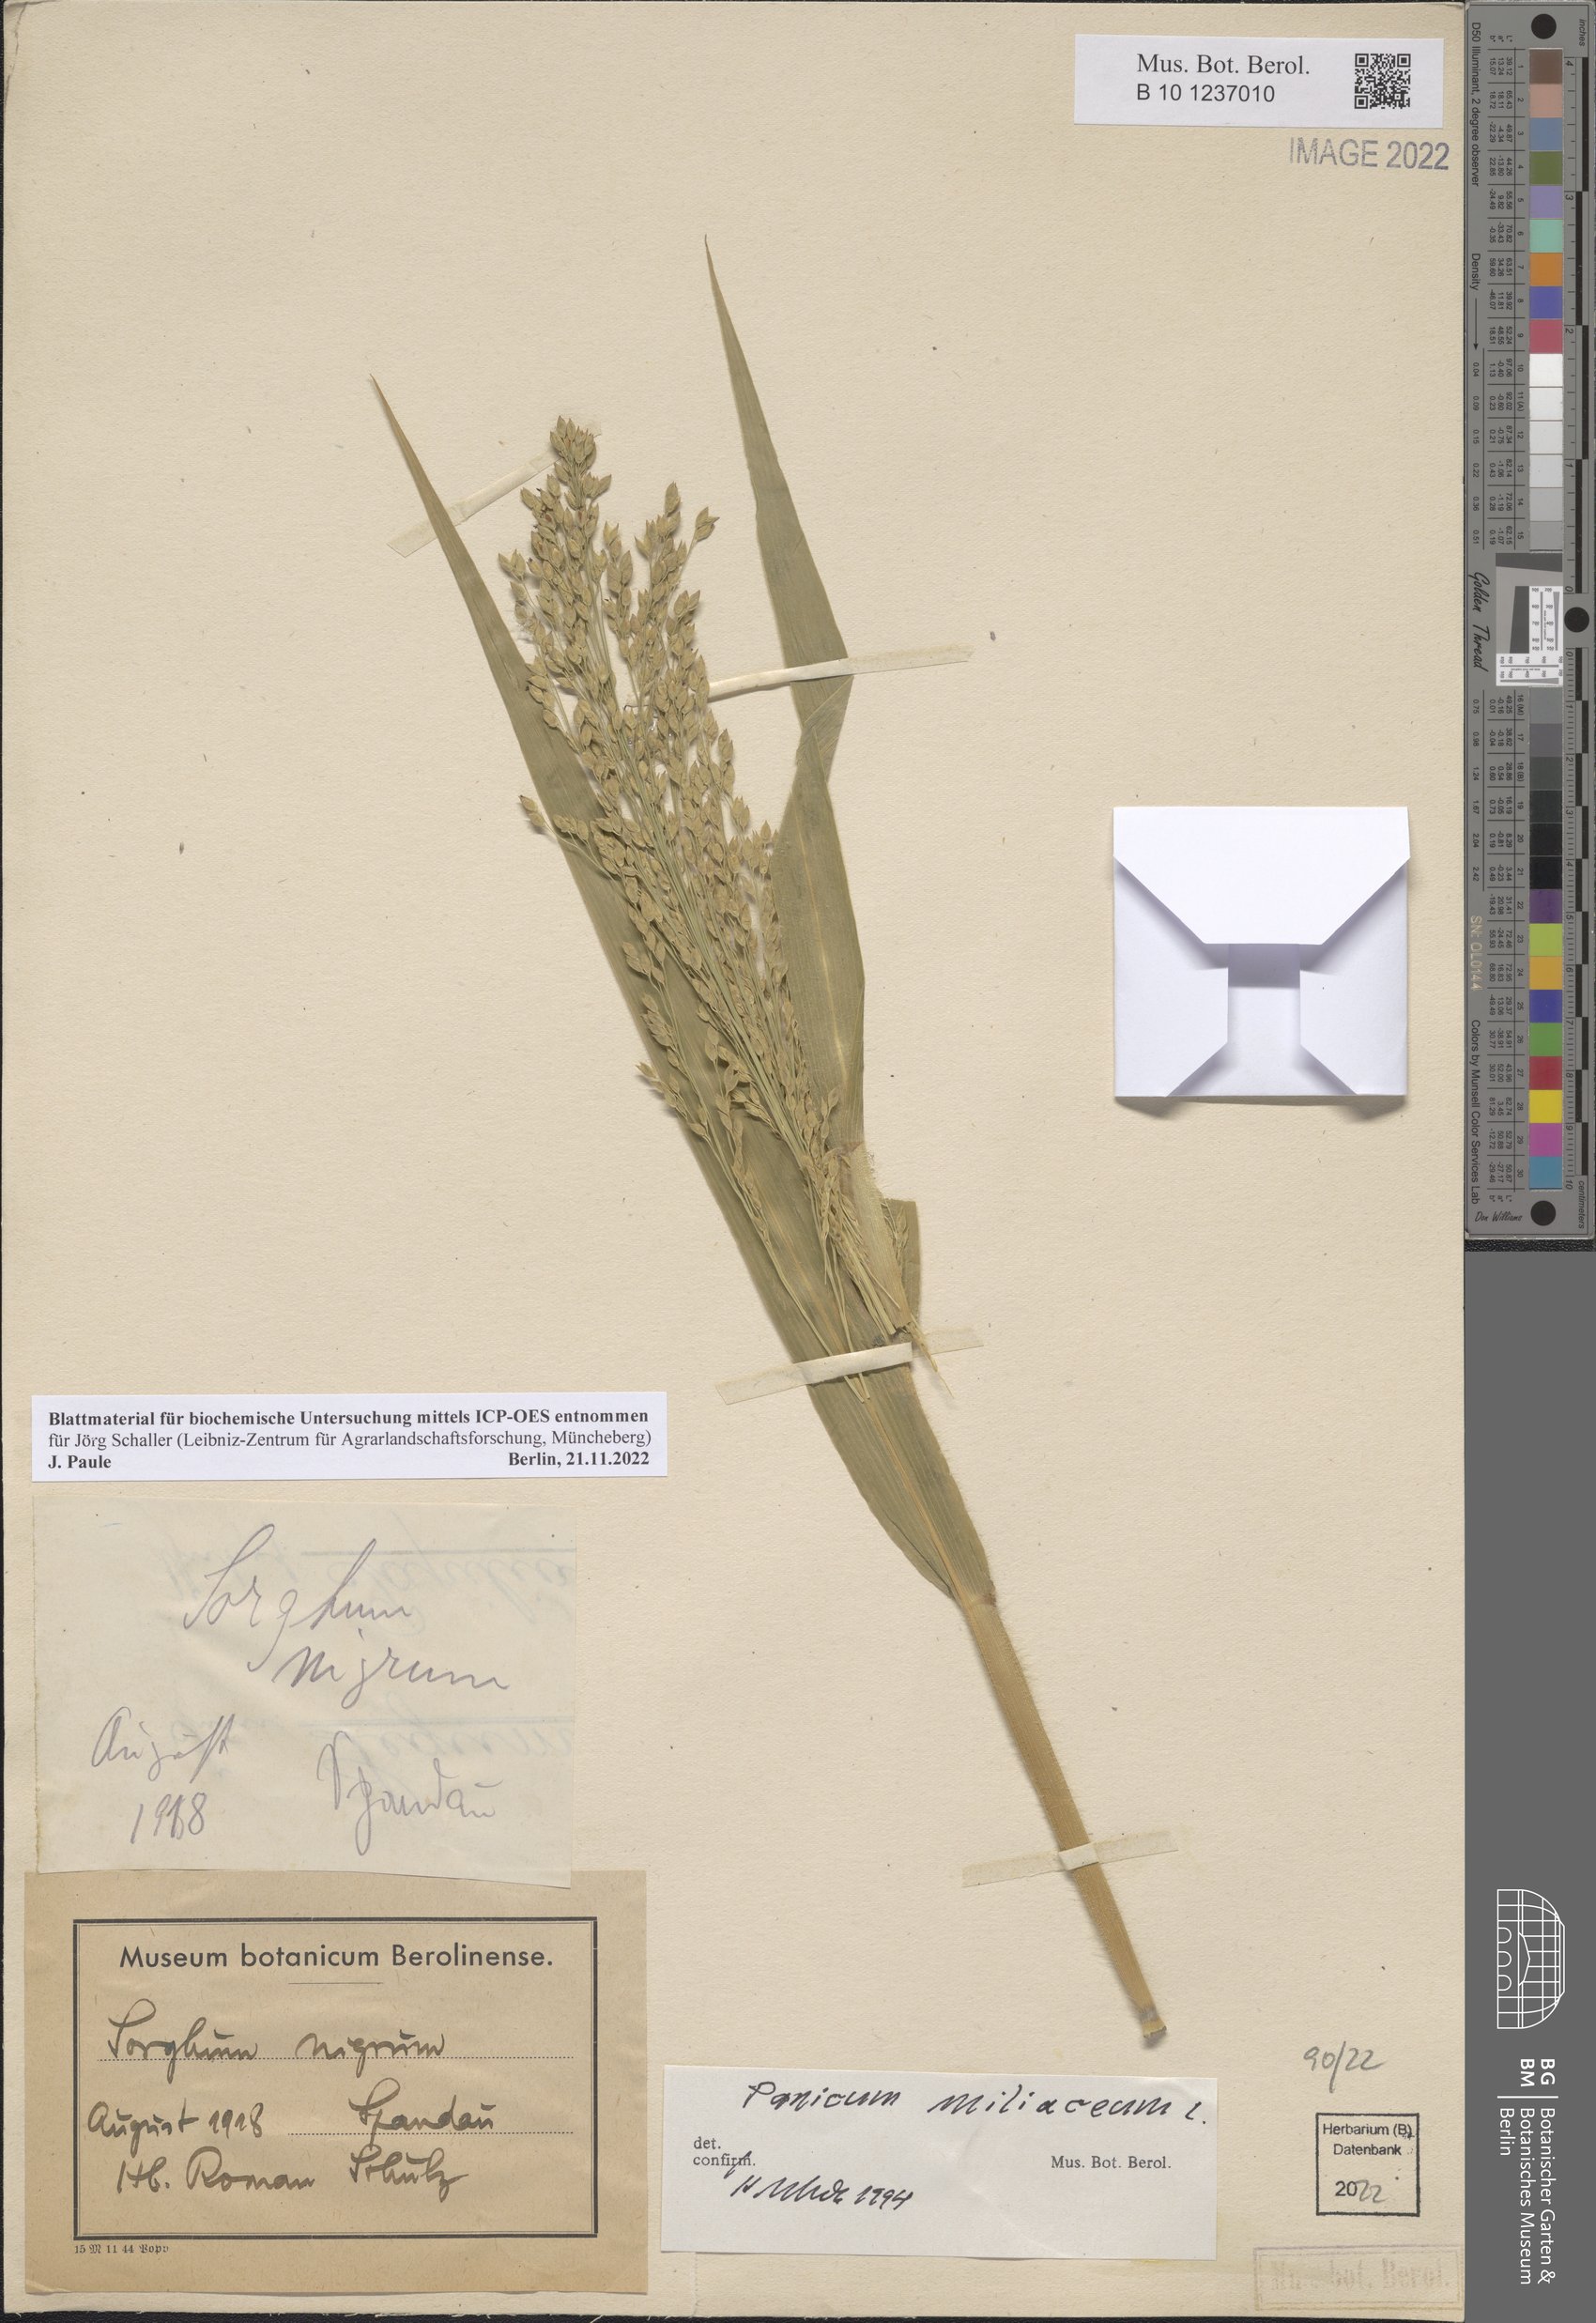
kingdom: Plantae
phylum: Tracheophyta
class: Liliopsida
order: Poales
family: Poaceae
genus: Panicum
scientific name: Panicum miliaceum
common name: Common millet
